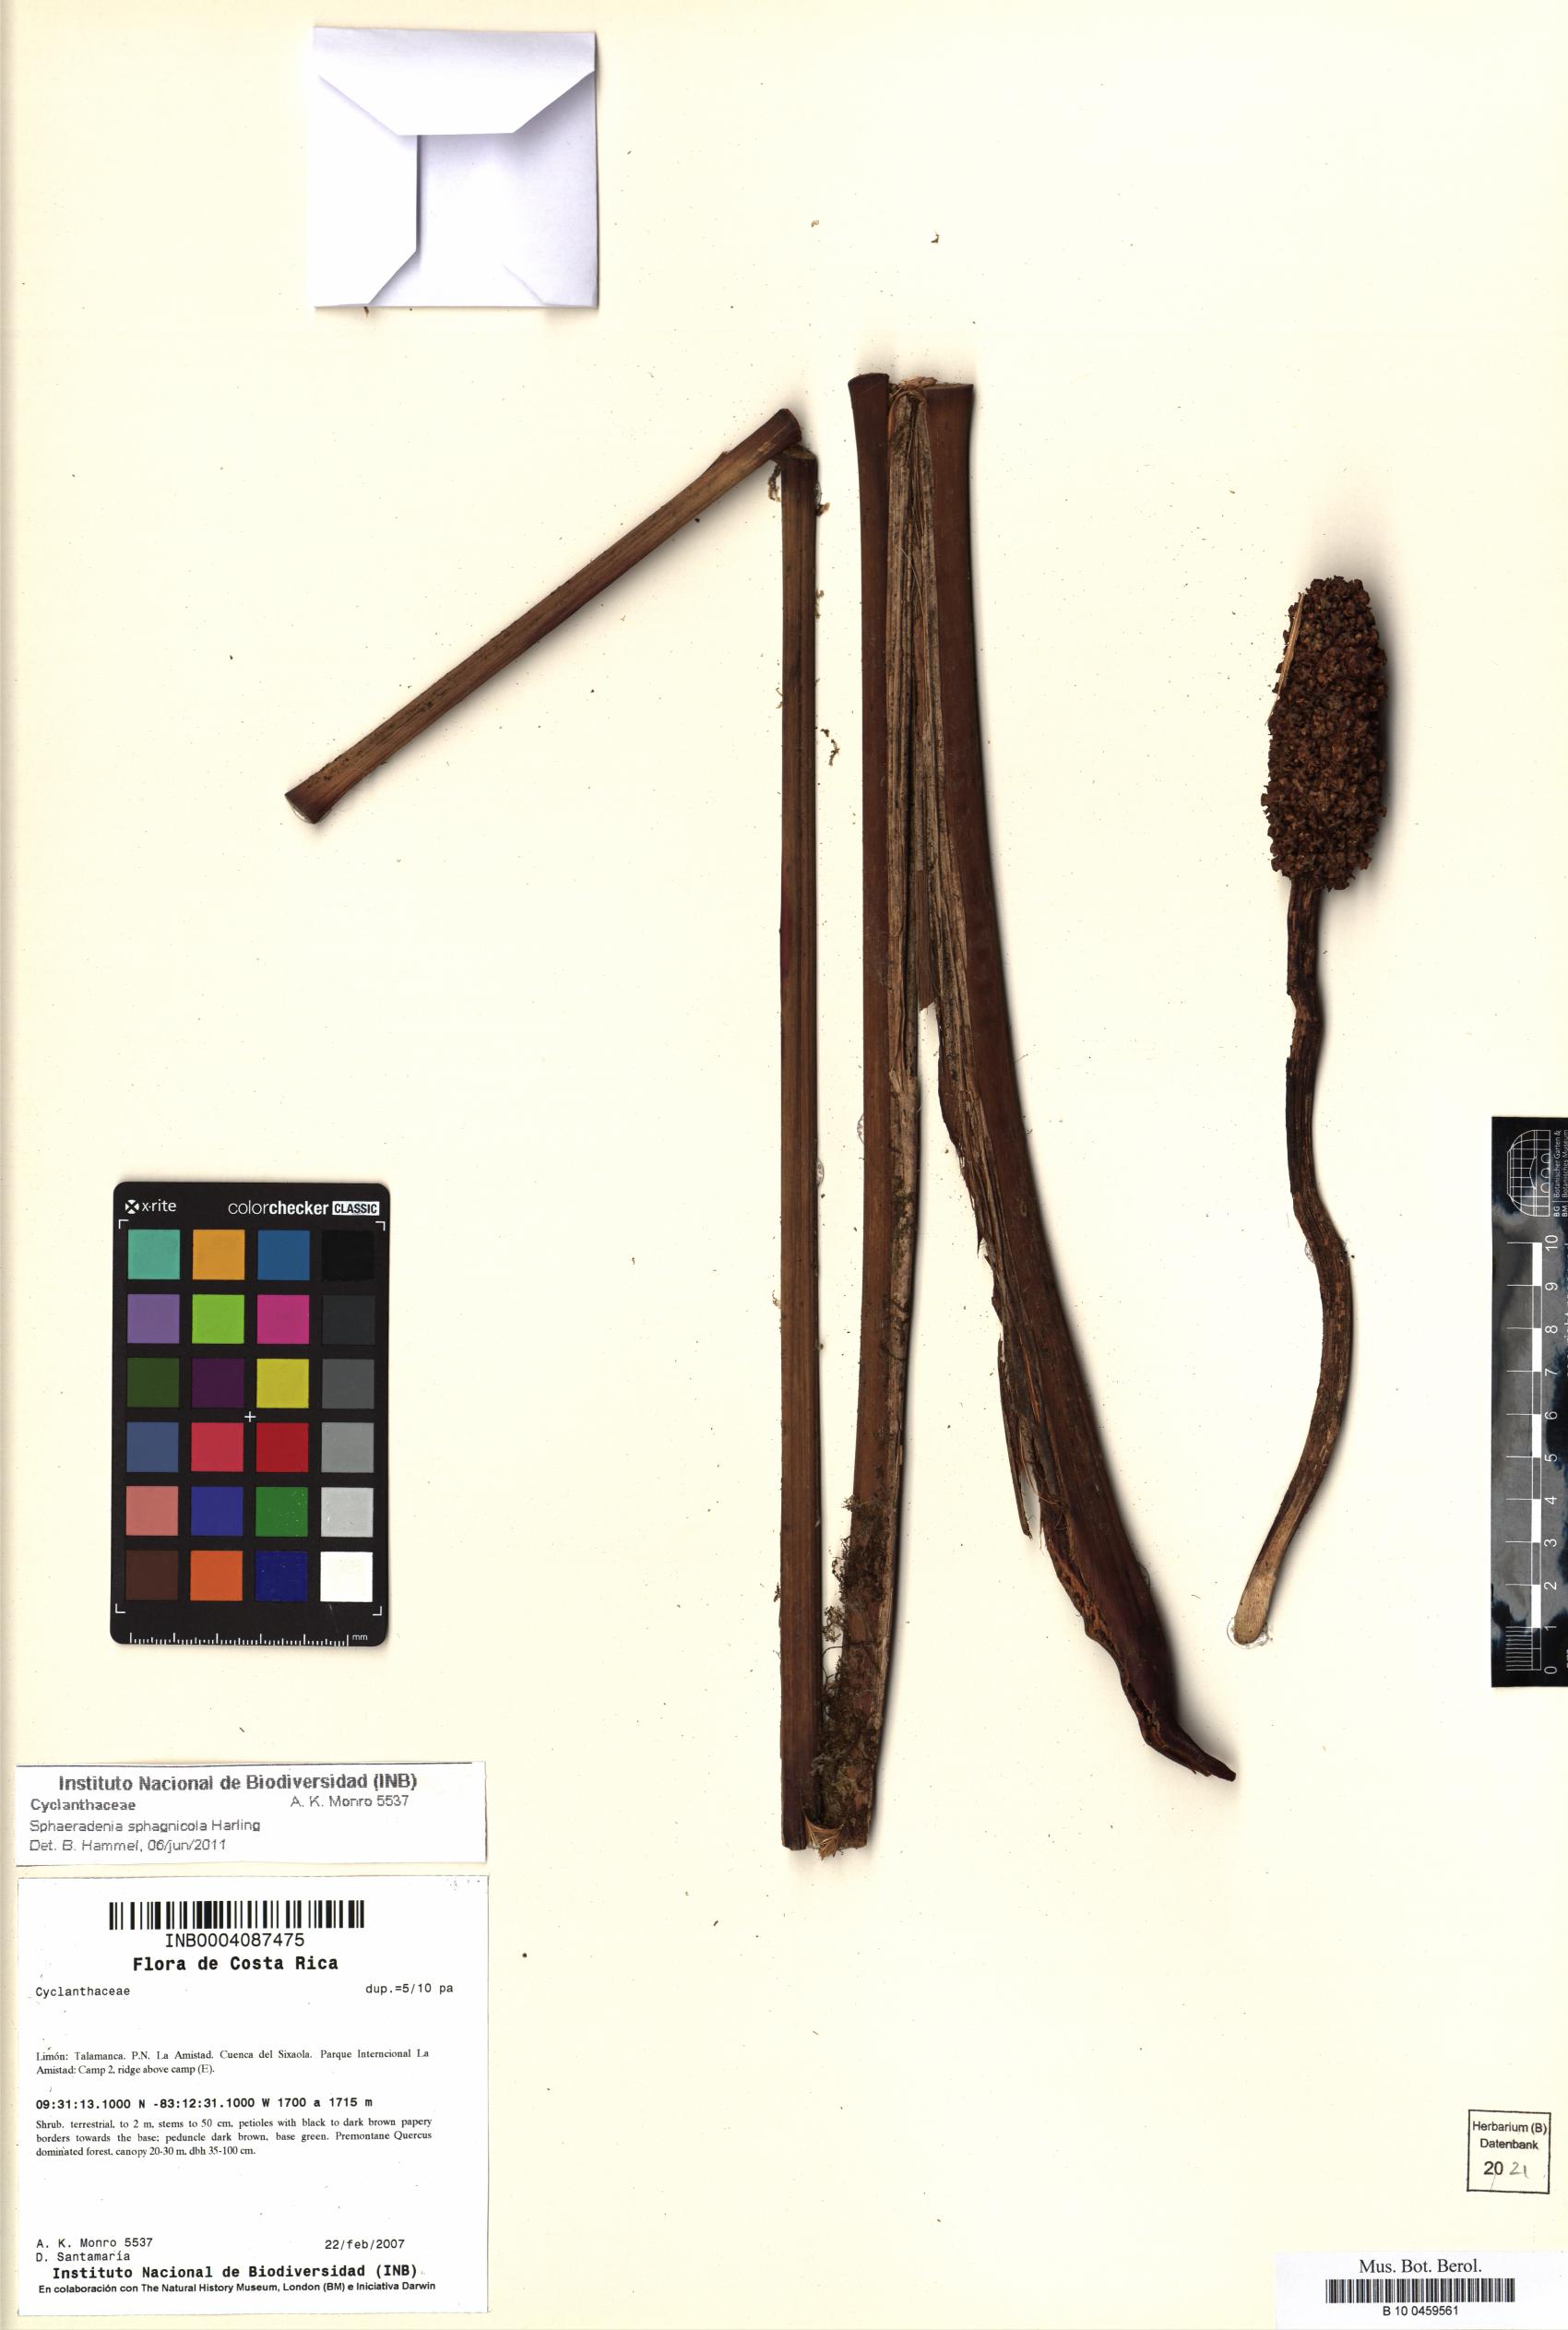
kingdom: Plantae
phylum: Tracheophyta
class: Liliopsida
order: Pandanales
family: Cyclanthaceae
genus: Sphaeradenia
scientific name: Sphaeradenia sphagnicola
